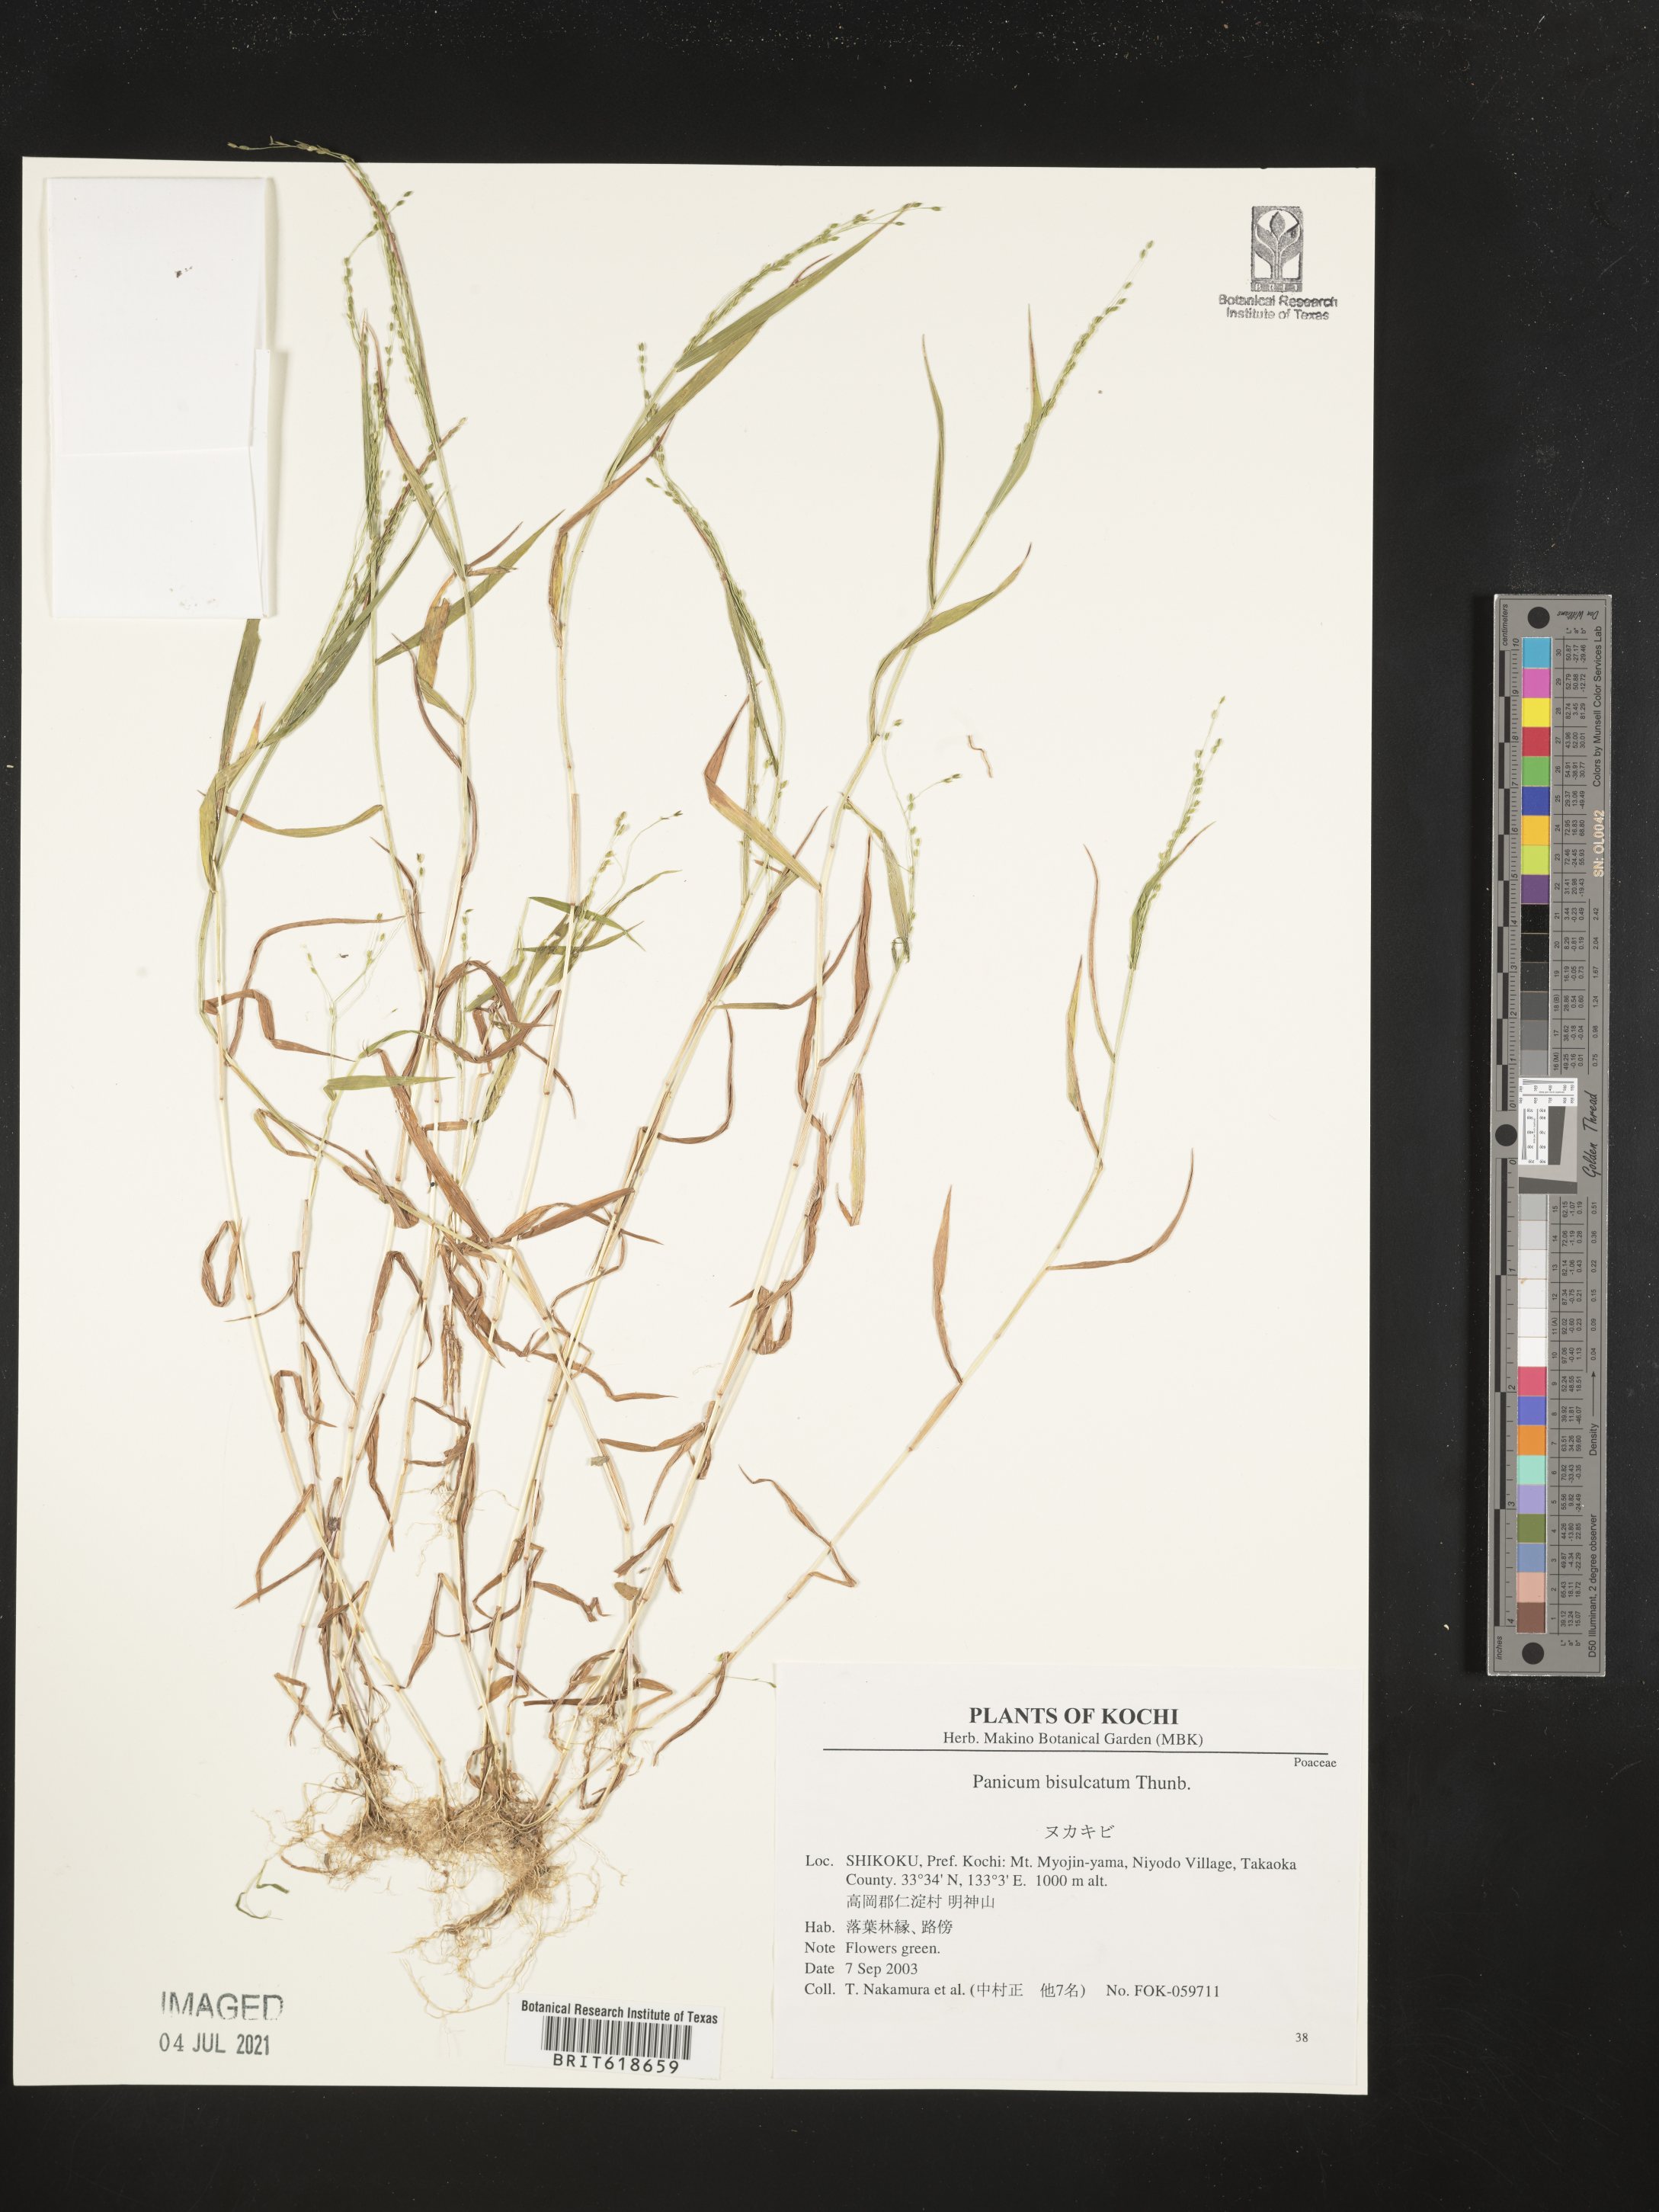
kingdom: Plantae
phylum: Tracheophyta
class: Liliopsida
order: Poales
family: Poaceae
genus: Panicum
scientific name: Panicum bisulcatum
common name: Japanese panicgrass
